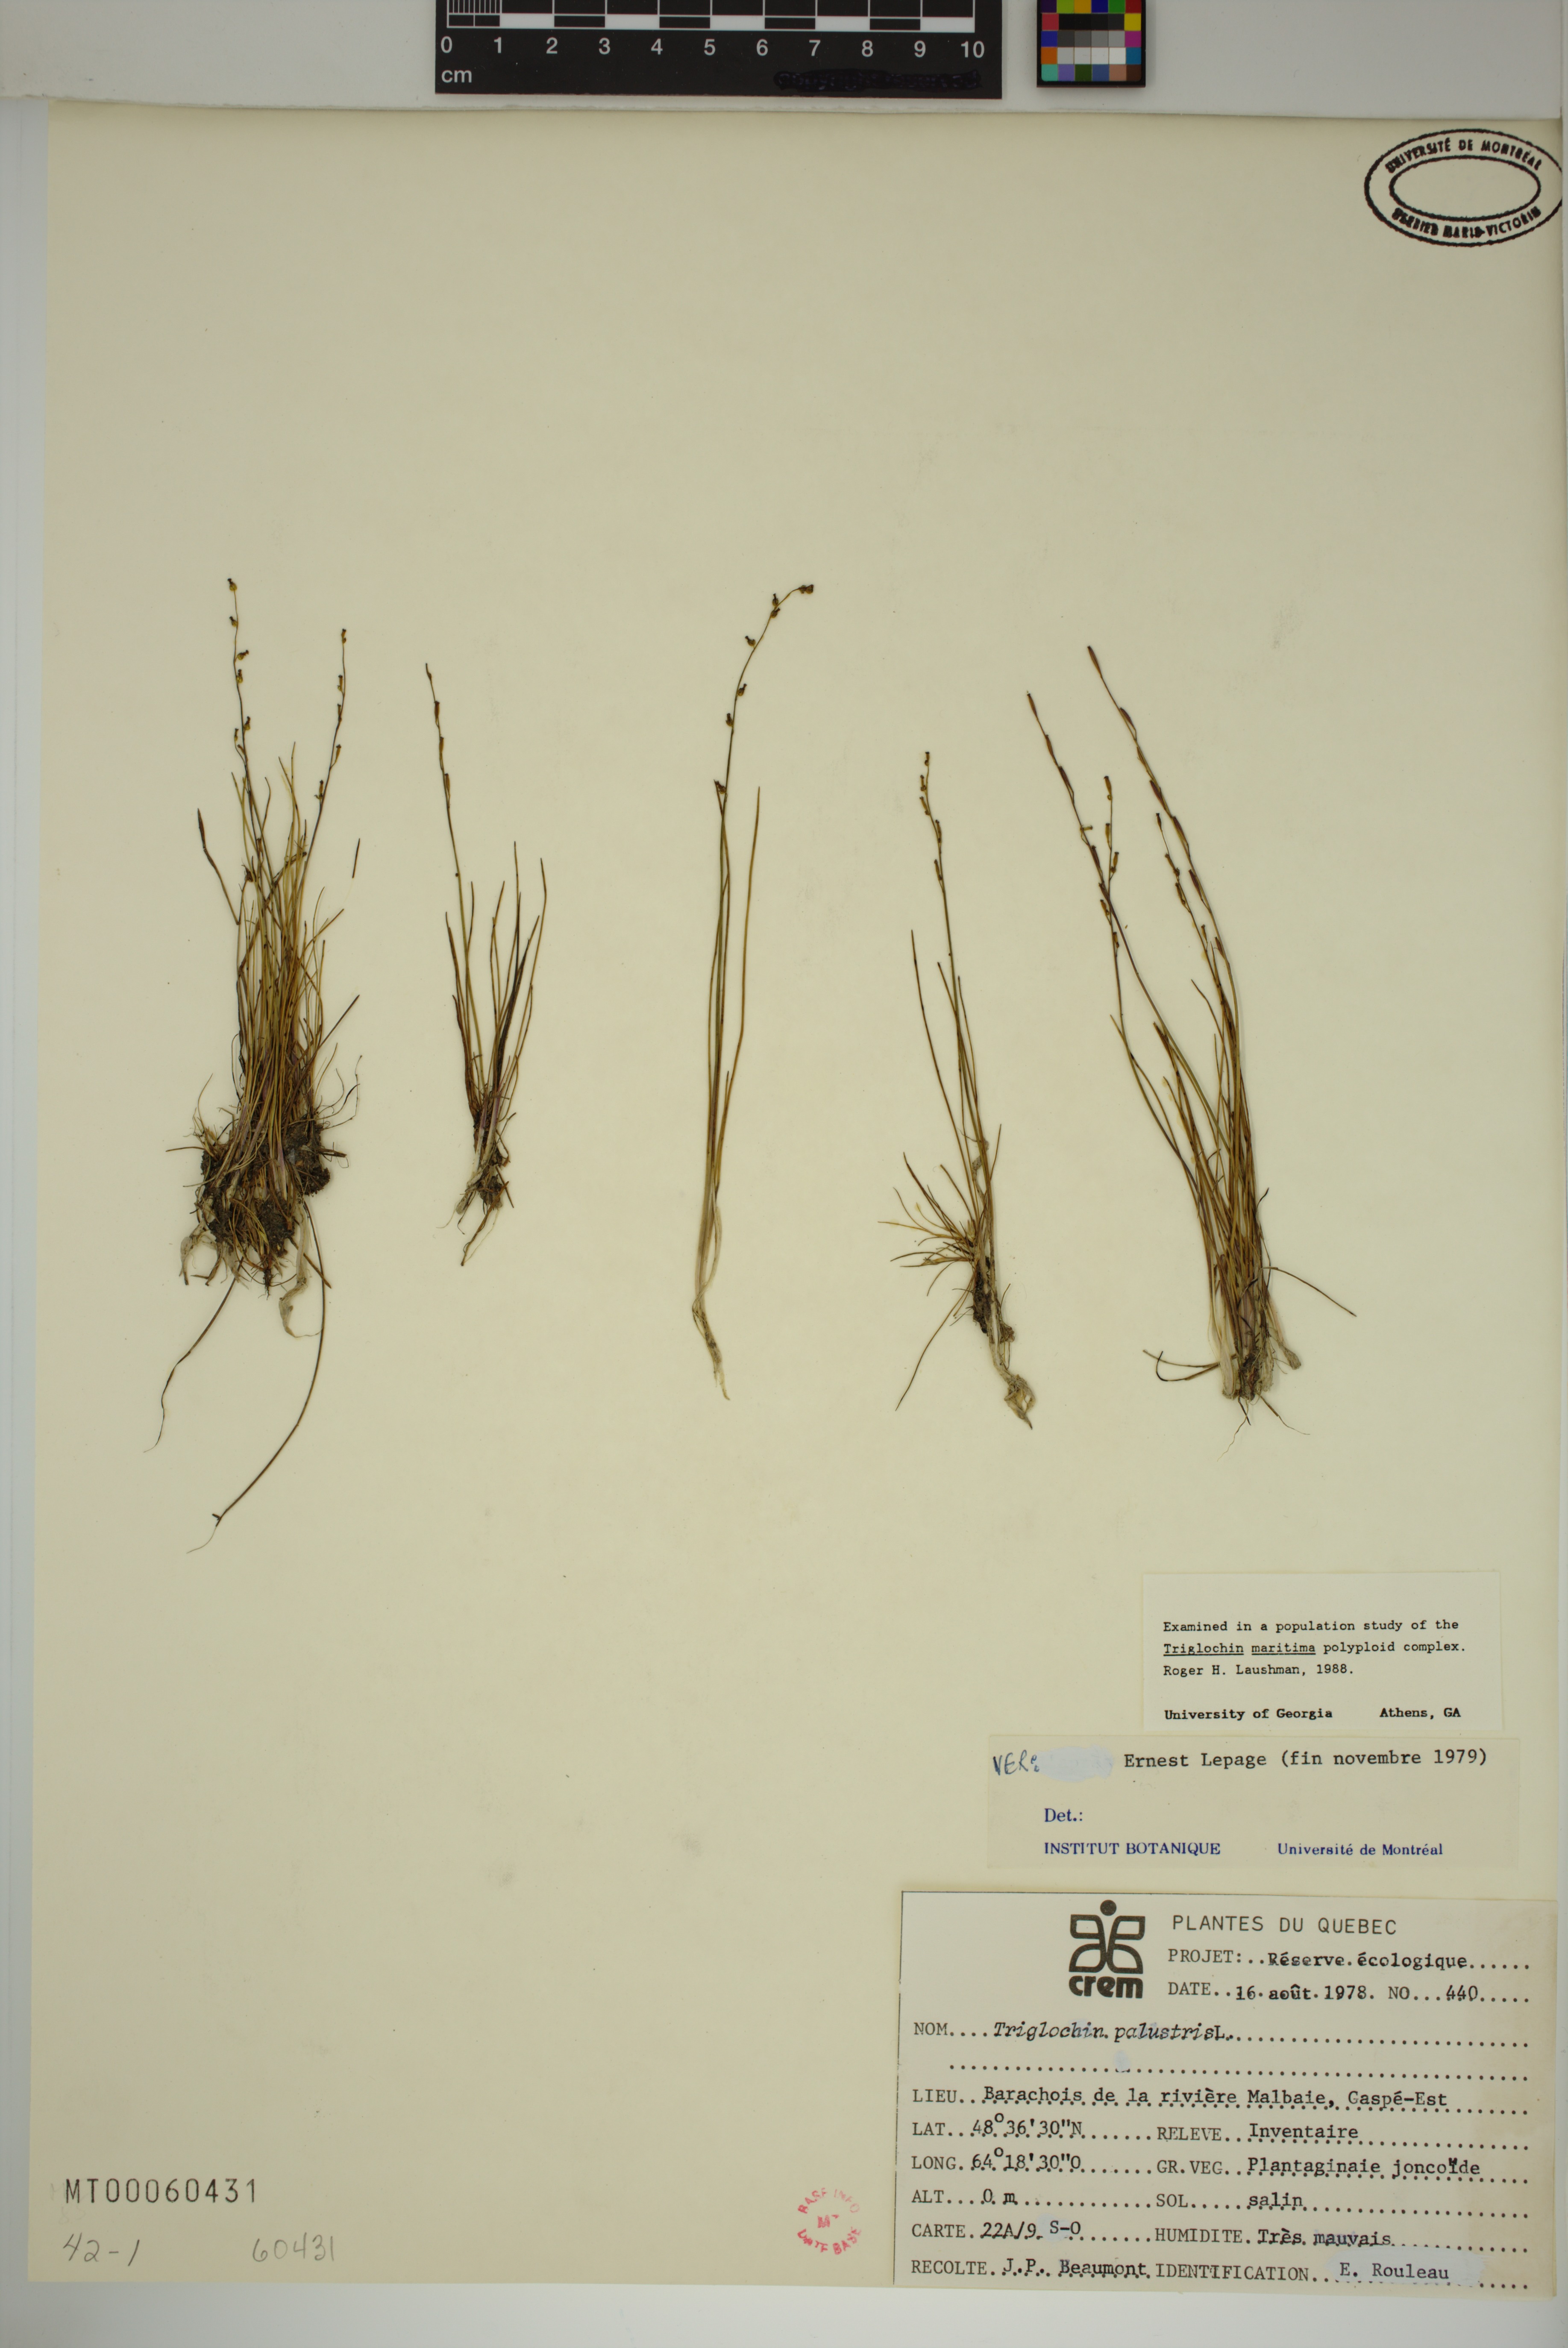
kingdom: Plantae
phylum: Tracheophyta
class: Liliopsida
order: Alismatales
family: Juncaginaceae
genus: Triglochin
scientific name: Triglochin palustris
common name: Marsh arrowgrass
